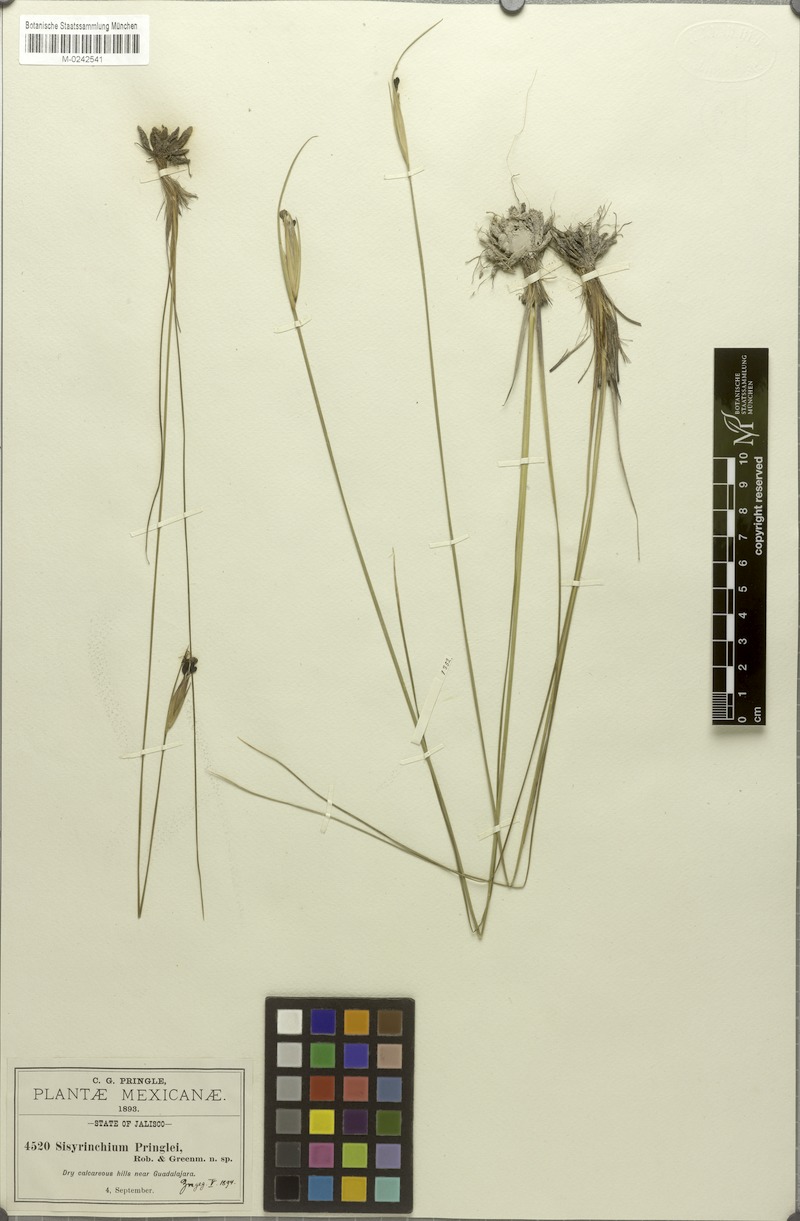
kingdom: Plantae
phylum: Tracheophyta
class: Liliopsida
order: Asparagales
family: Iridaceae
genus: Sisyrinchium
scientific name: Sisyrinchium pringlei
